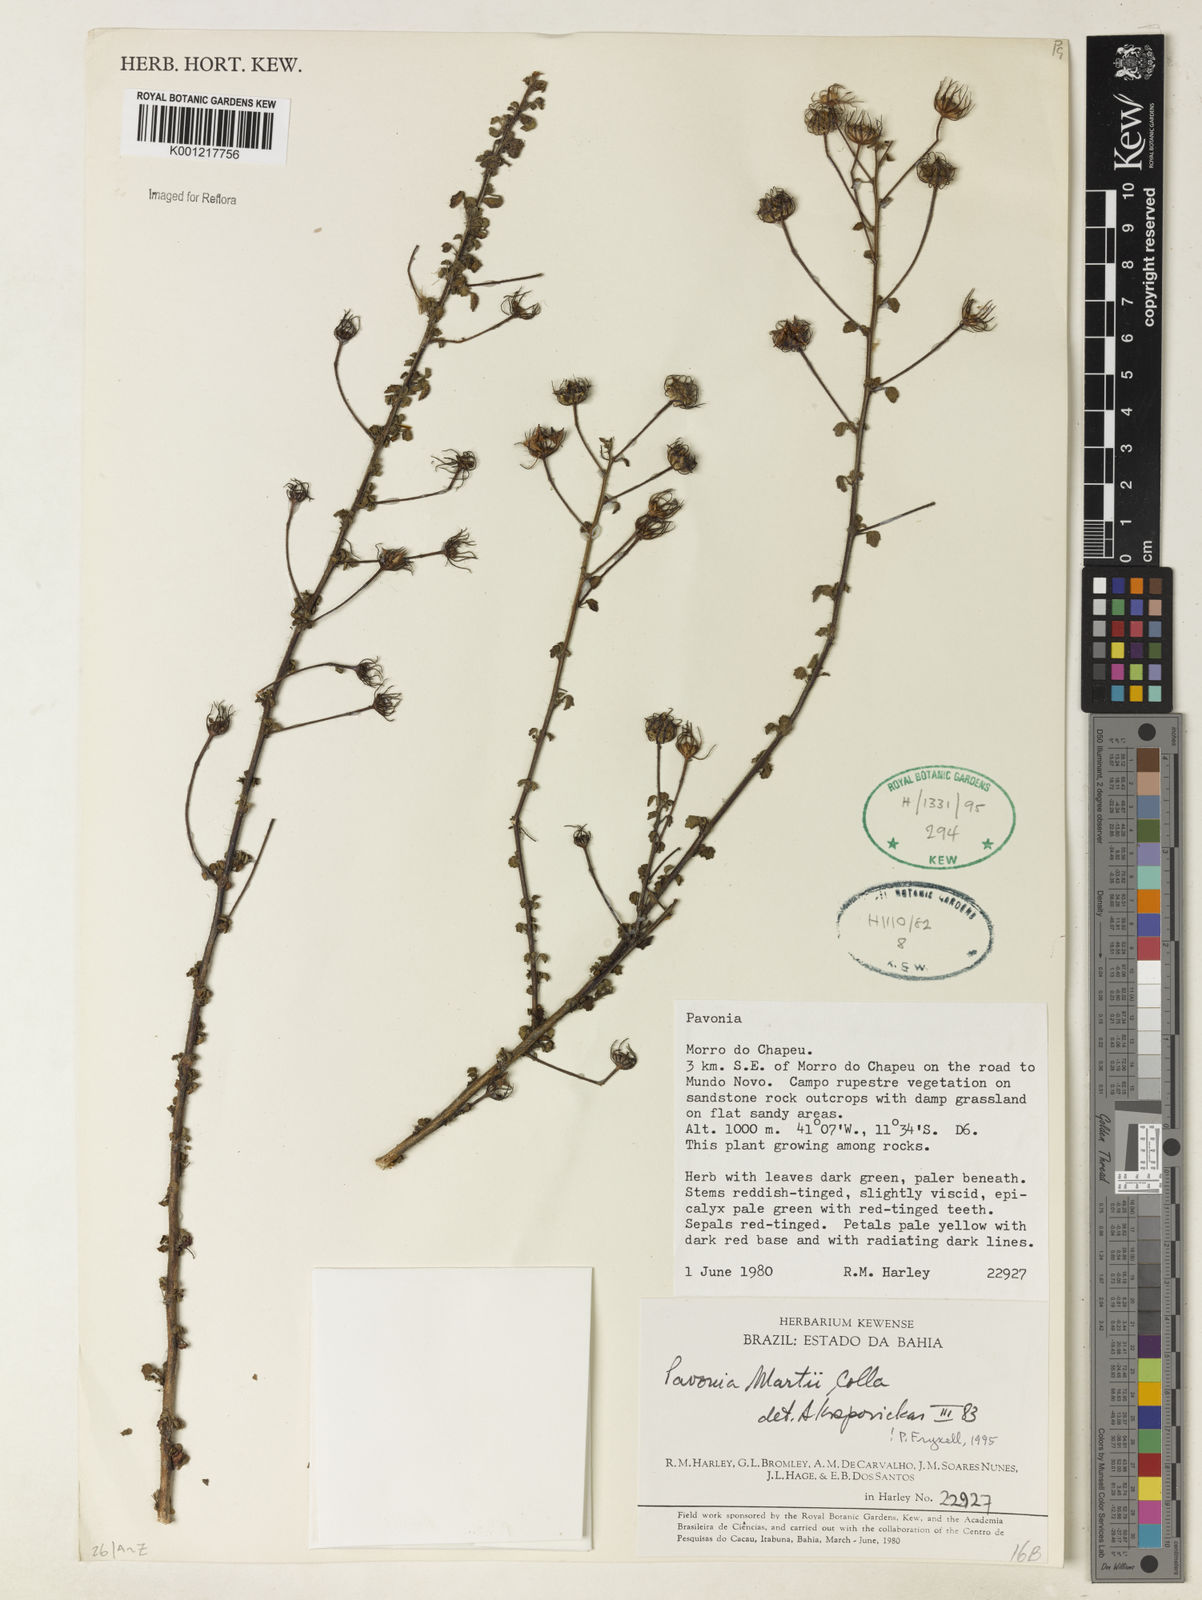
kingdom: Plantae
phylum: Tracheophyta
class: Magnoliopsida
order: Malvales
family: Malvaceae
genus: Pavonia
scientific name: Pavonia martii
